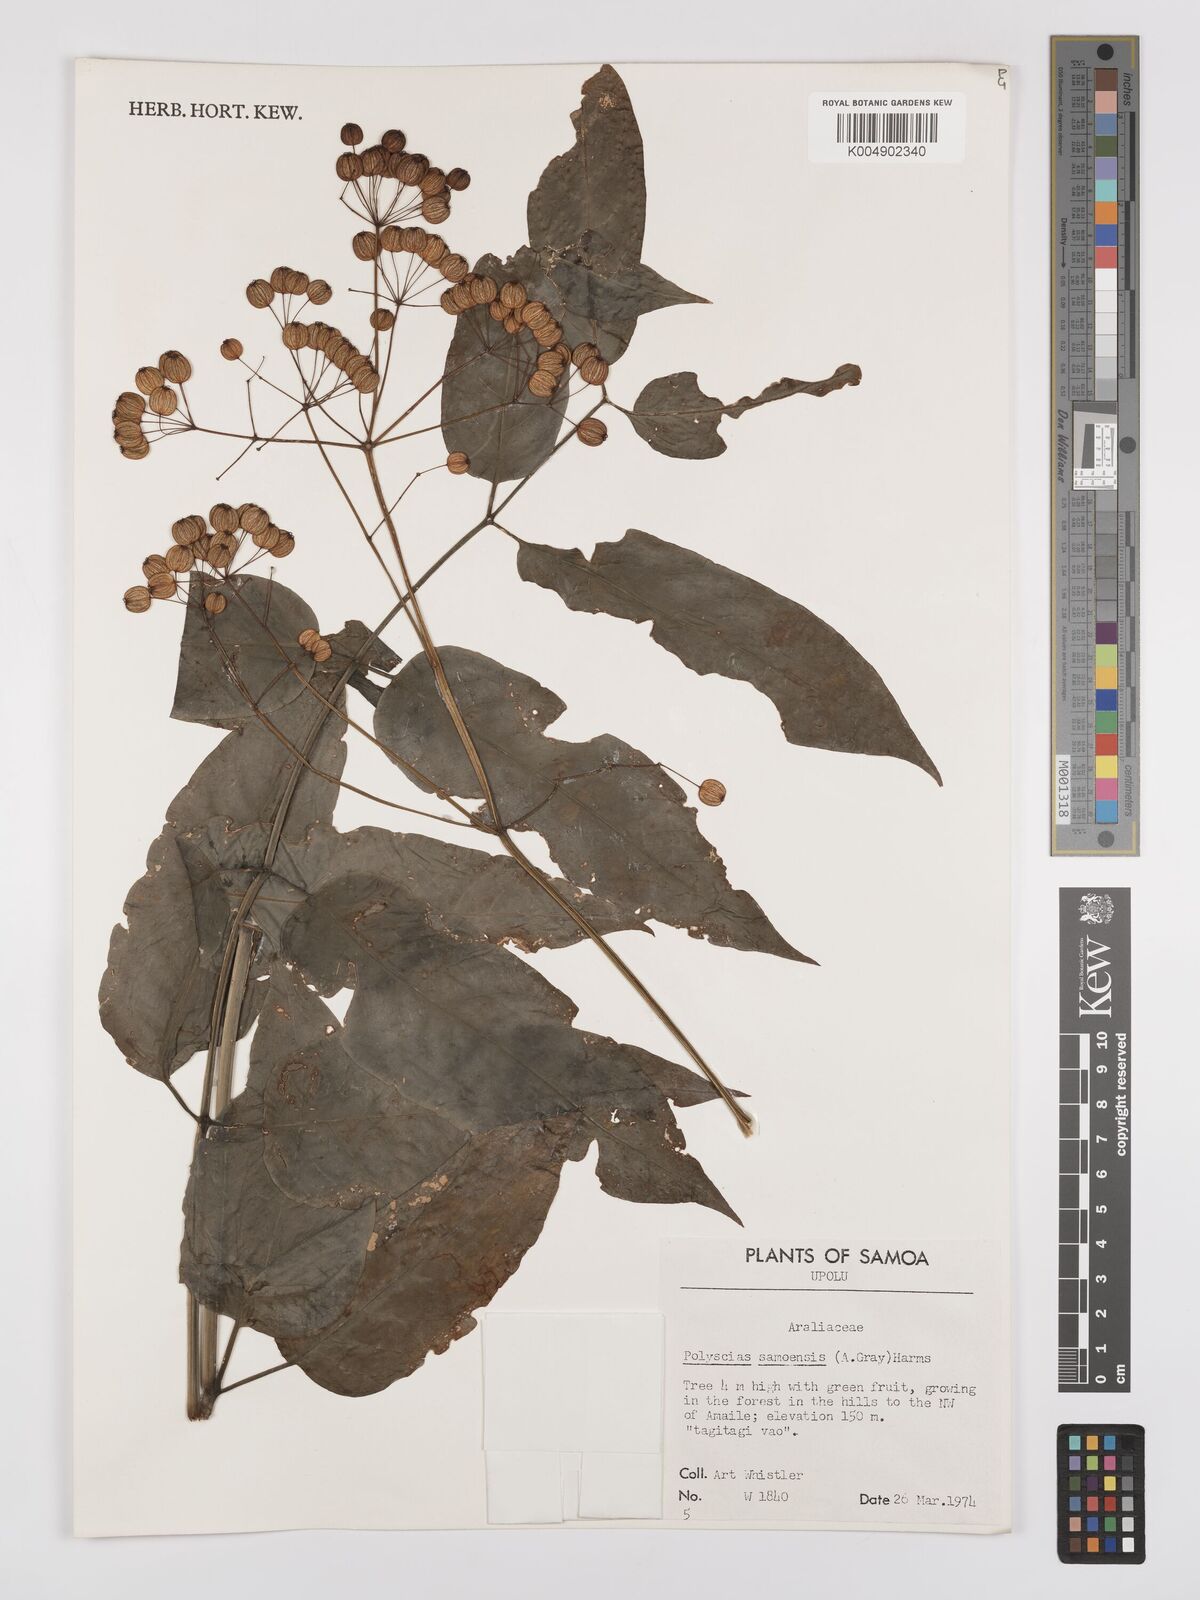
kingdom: Plantae
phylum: Tracheophyta
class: Magnoliopsida
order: Apiales
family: Araliaceae
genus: Polyscias
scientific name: Polyscias samoensis
